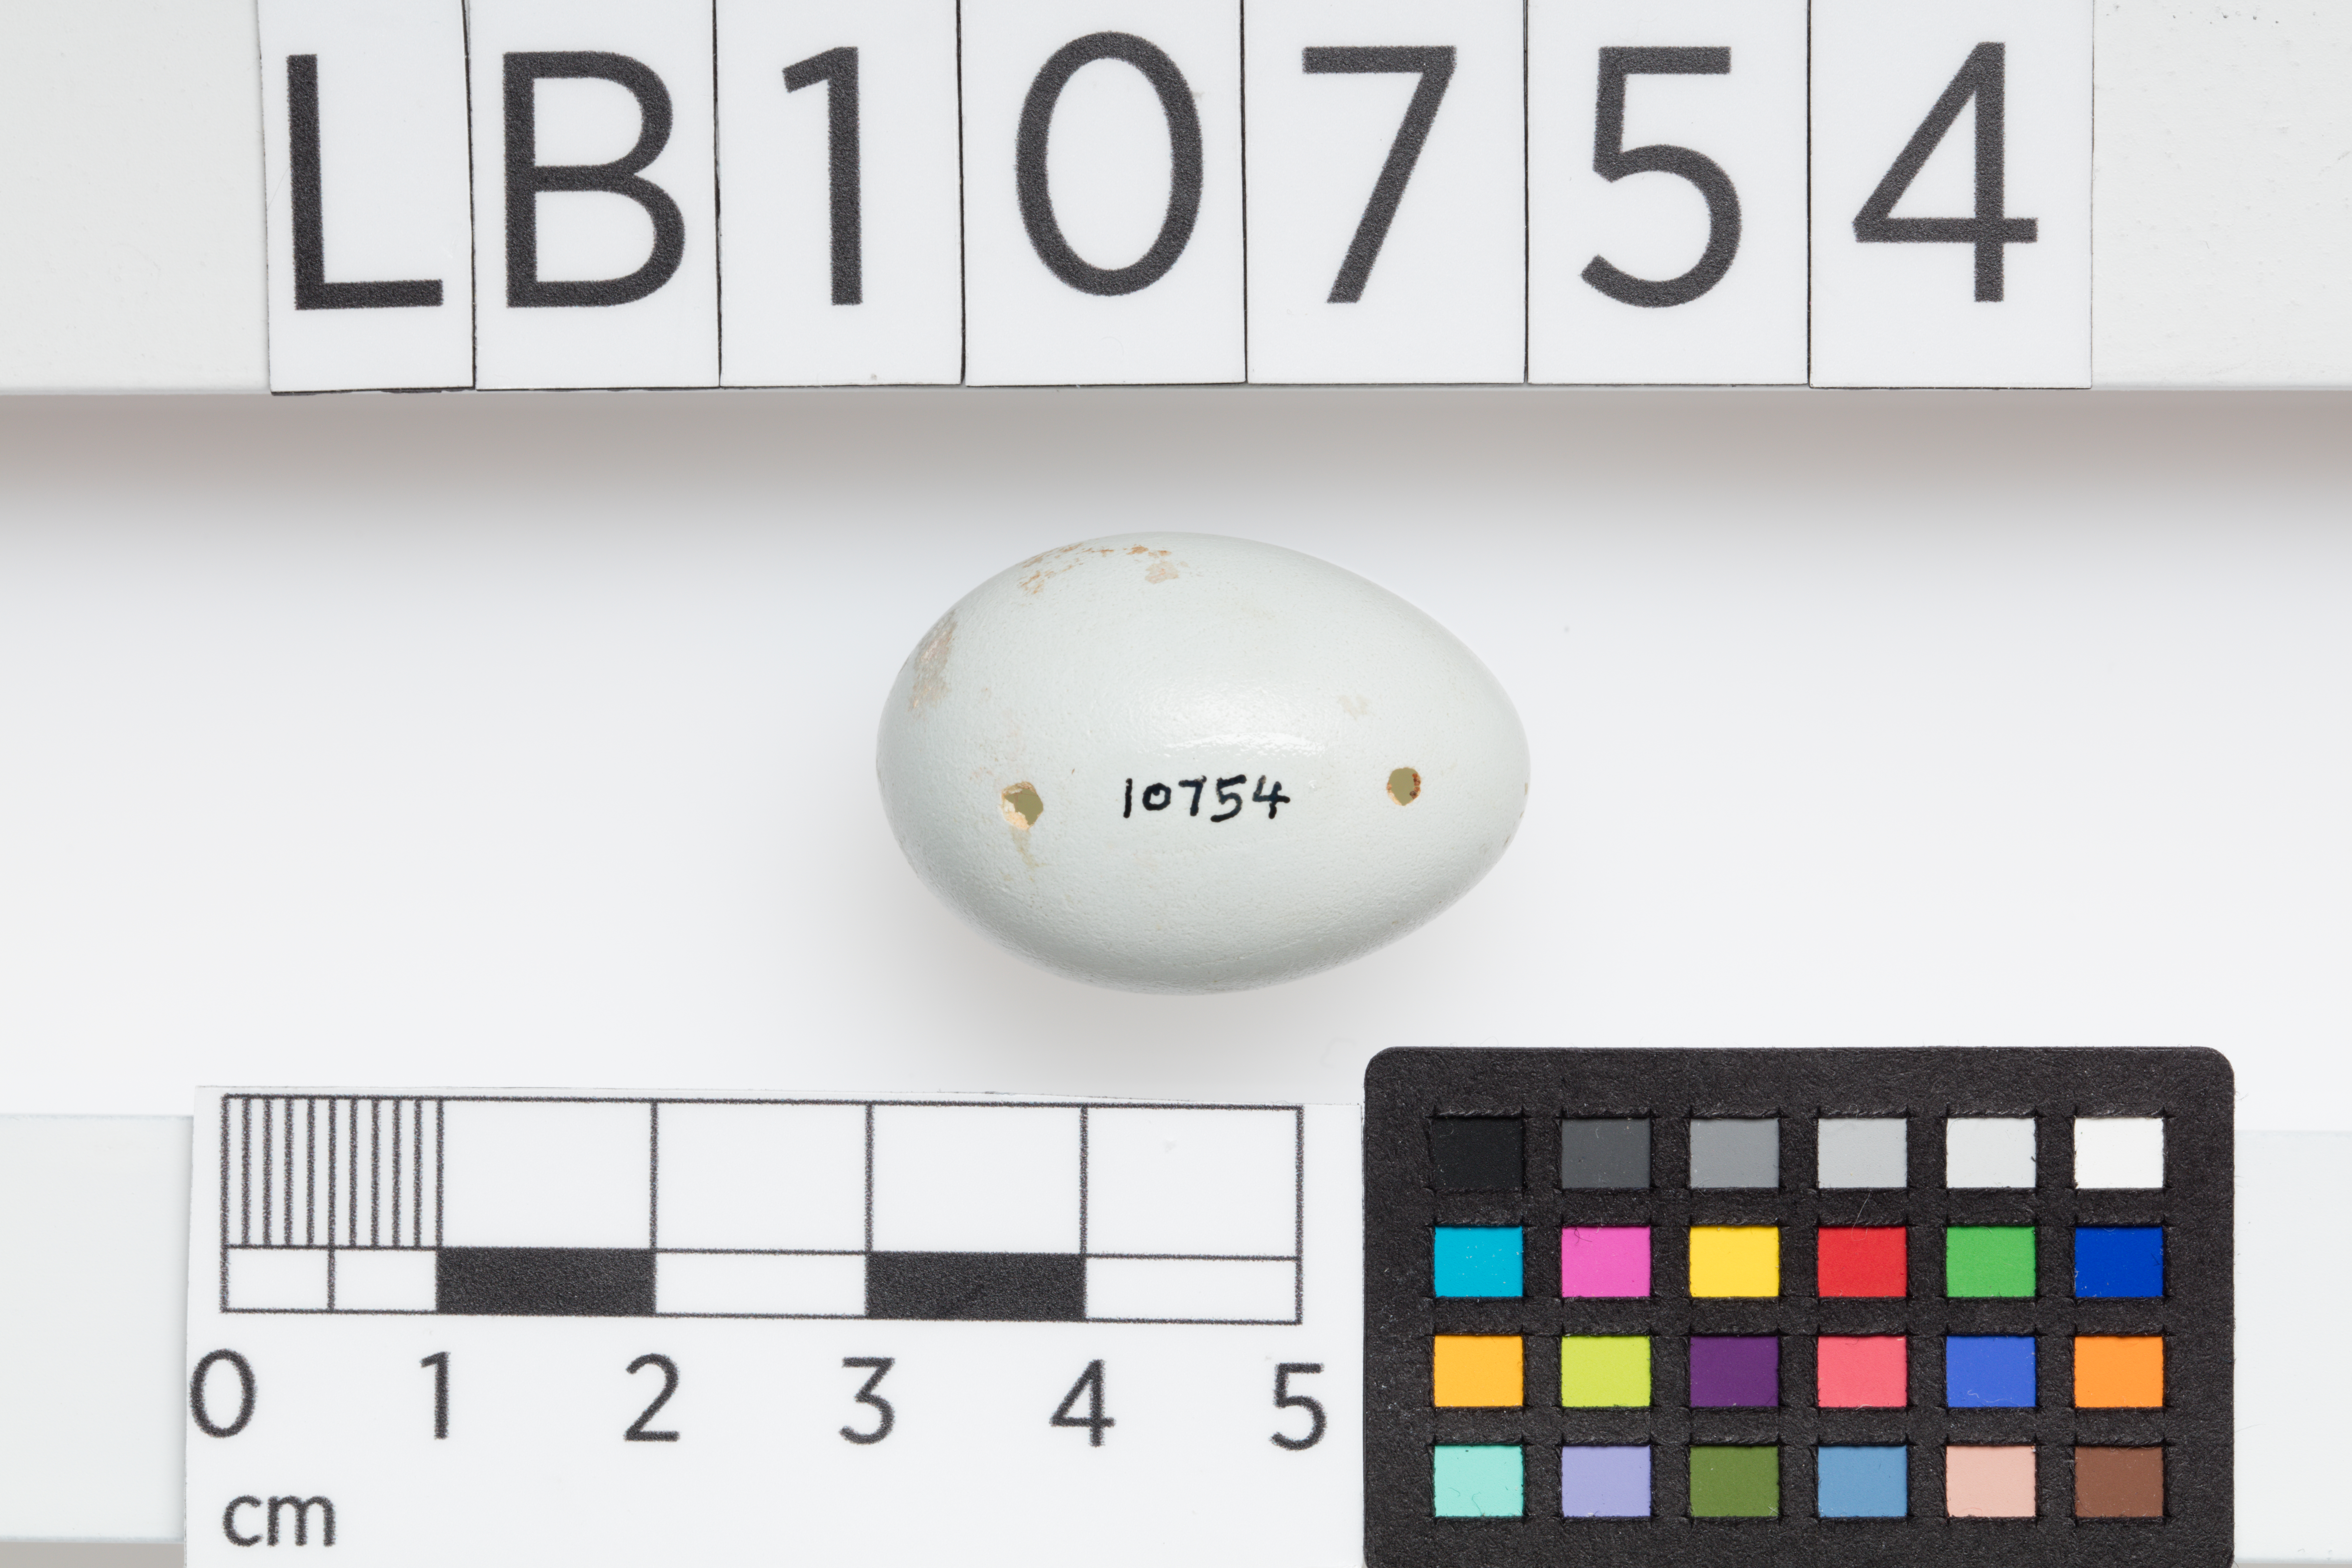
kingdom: Animalia
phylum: Chordata
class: Aves
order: Passeriformes
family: Sturnidae
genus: Sturnus
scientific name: Sturnus vulgaris
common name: Common starling
